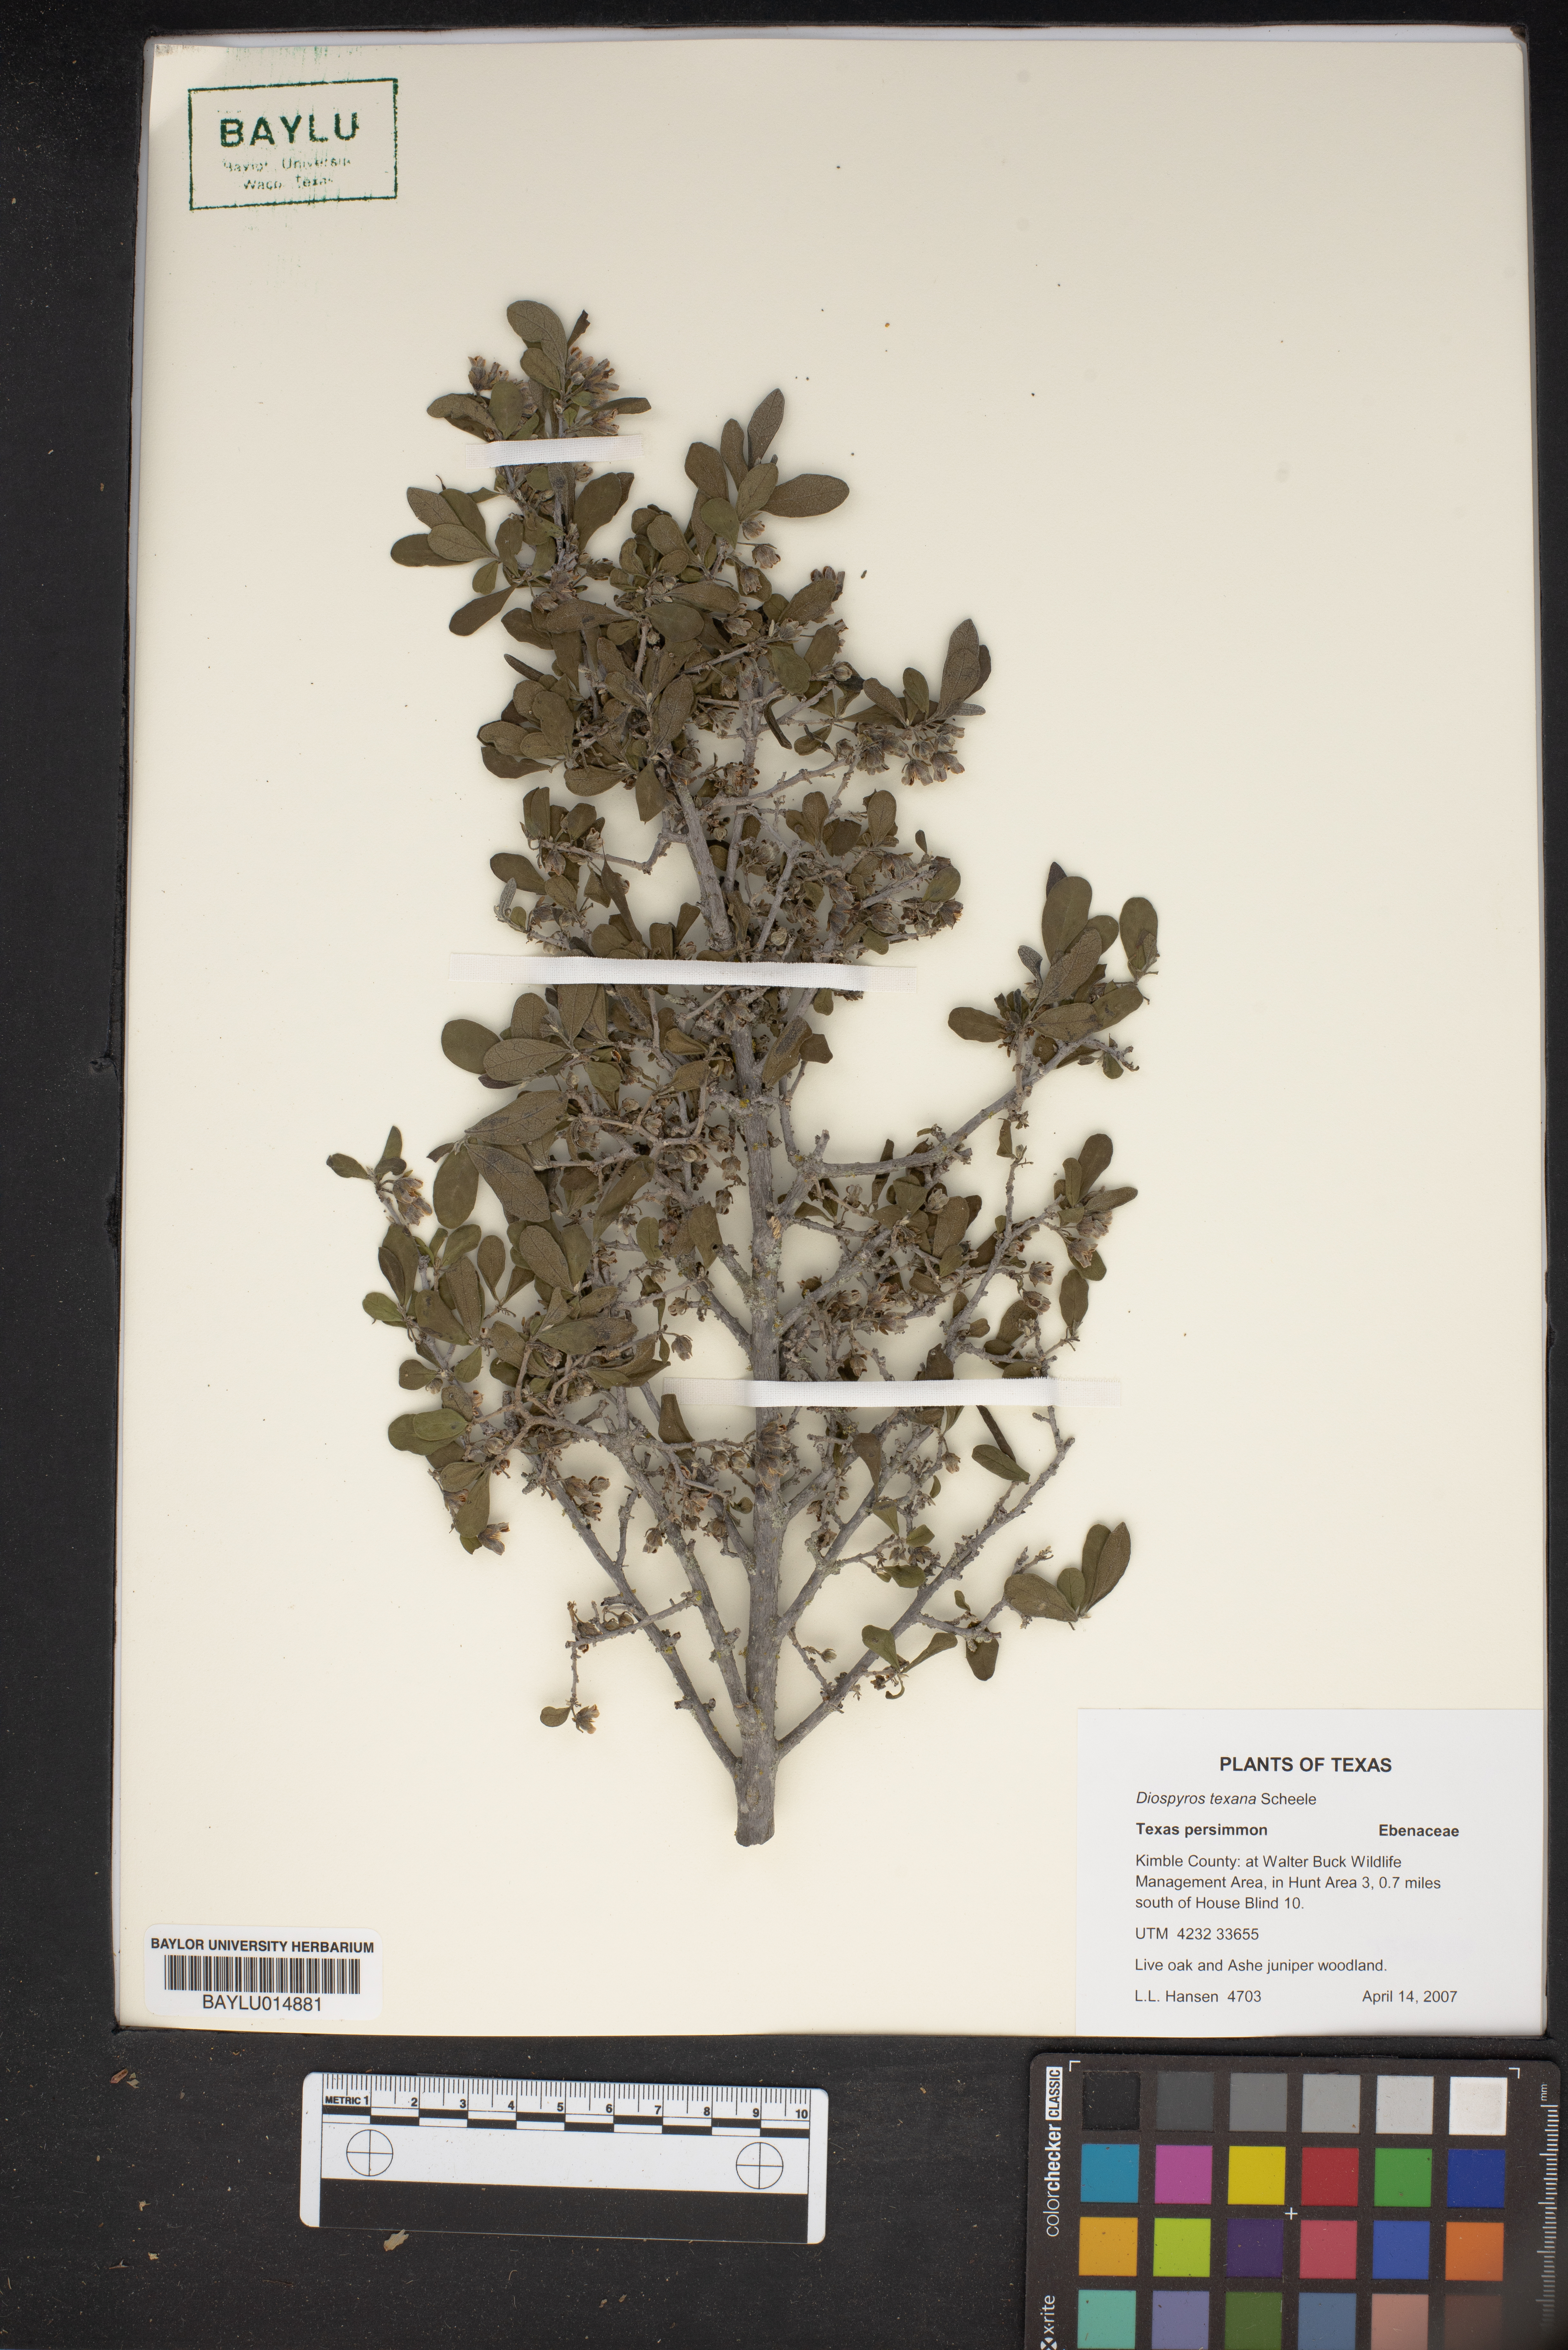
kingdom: Plantae
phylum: Tracheophyta
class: Magnoliopsida
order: Ericales
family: Ebenaceae
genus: Diospyros
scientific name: Diospyros texana
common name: Texas persimmon
